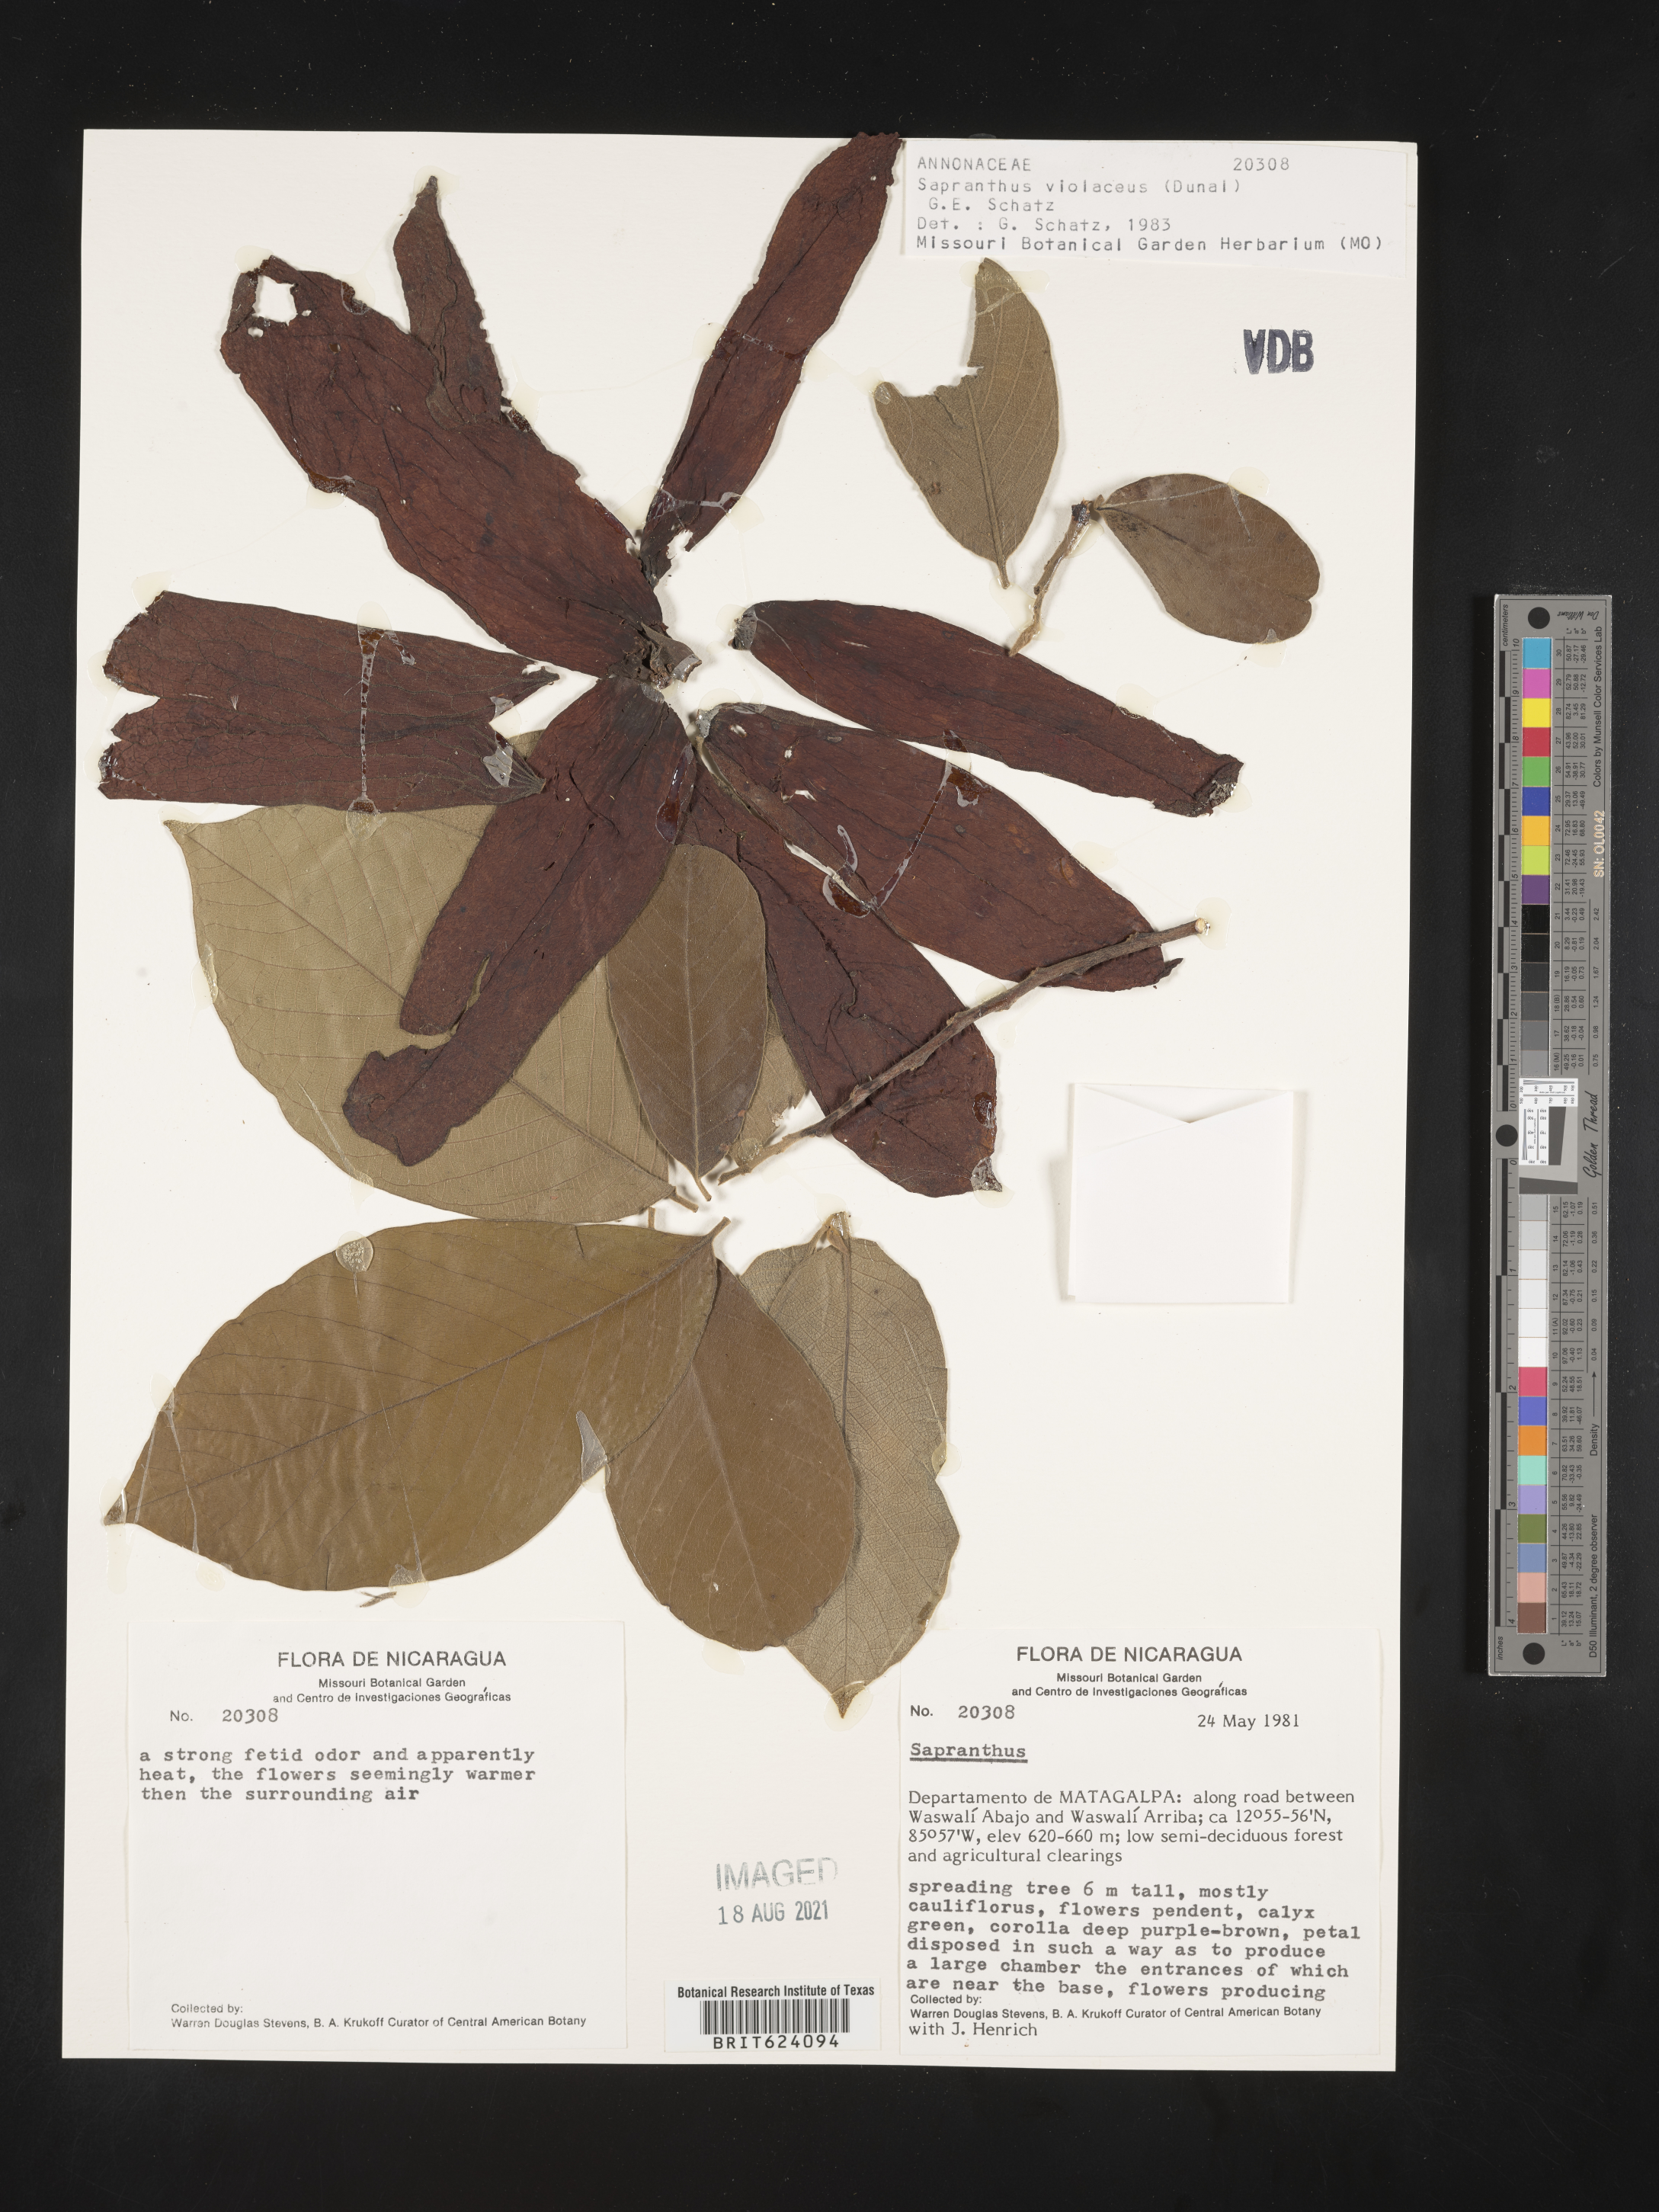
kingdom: Plantae
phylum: Tracheophyta
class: Magnoliopsida
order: Magnoliales
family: Annonaceae
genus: Sapranthus
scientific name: Sapranthus
